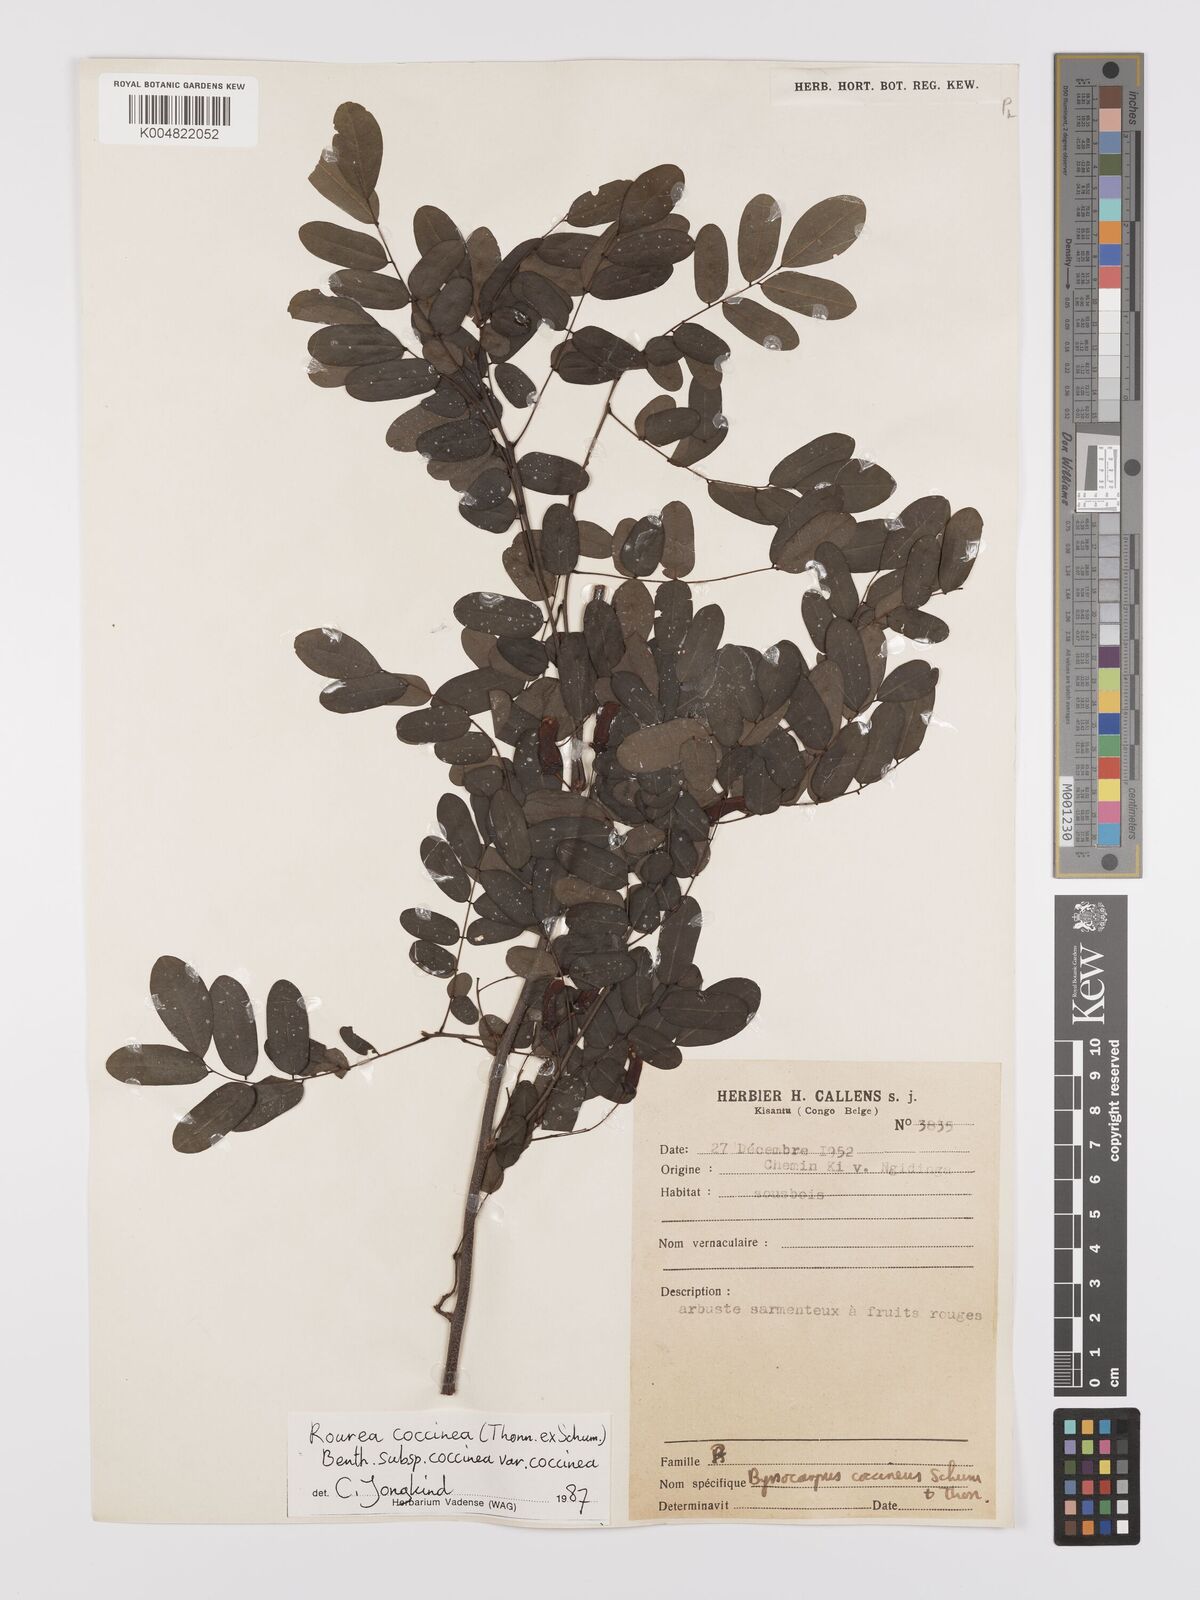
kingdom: Plantae
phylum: Tracheophyta
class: Magnoliopsida
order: Oxalidales
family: Connaraceae
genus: Rourea
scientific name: Rourea coccinea
